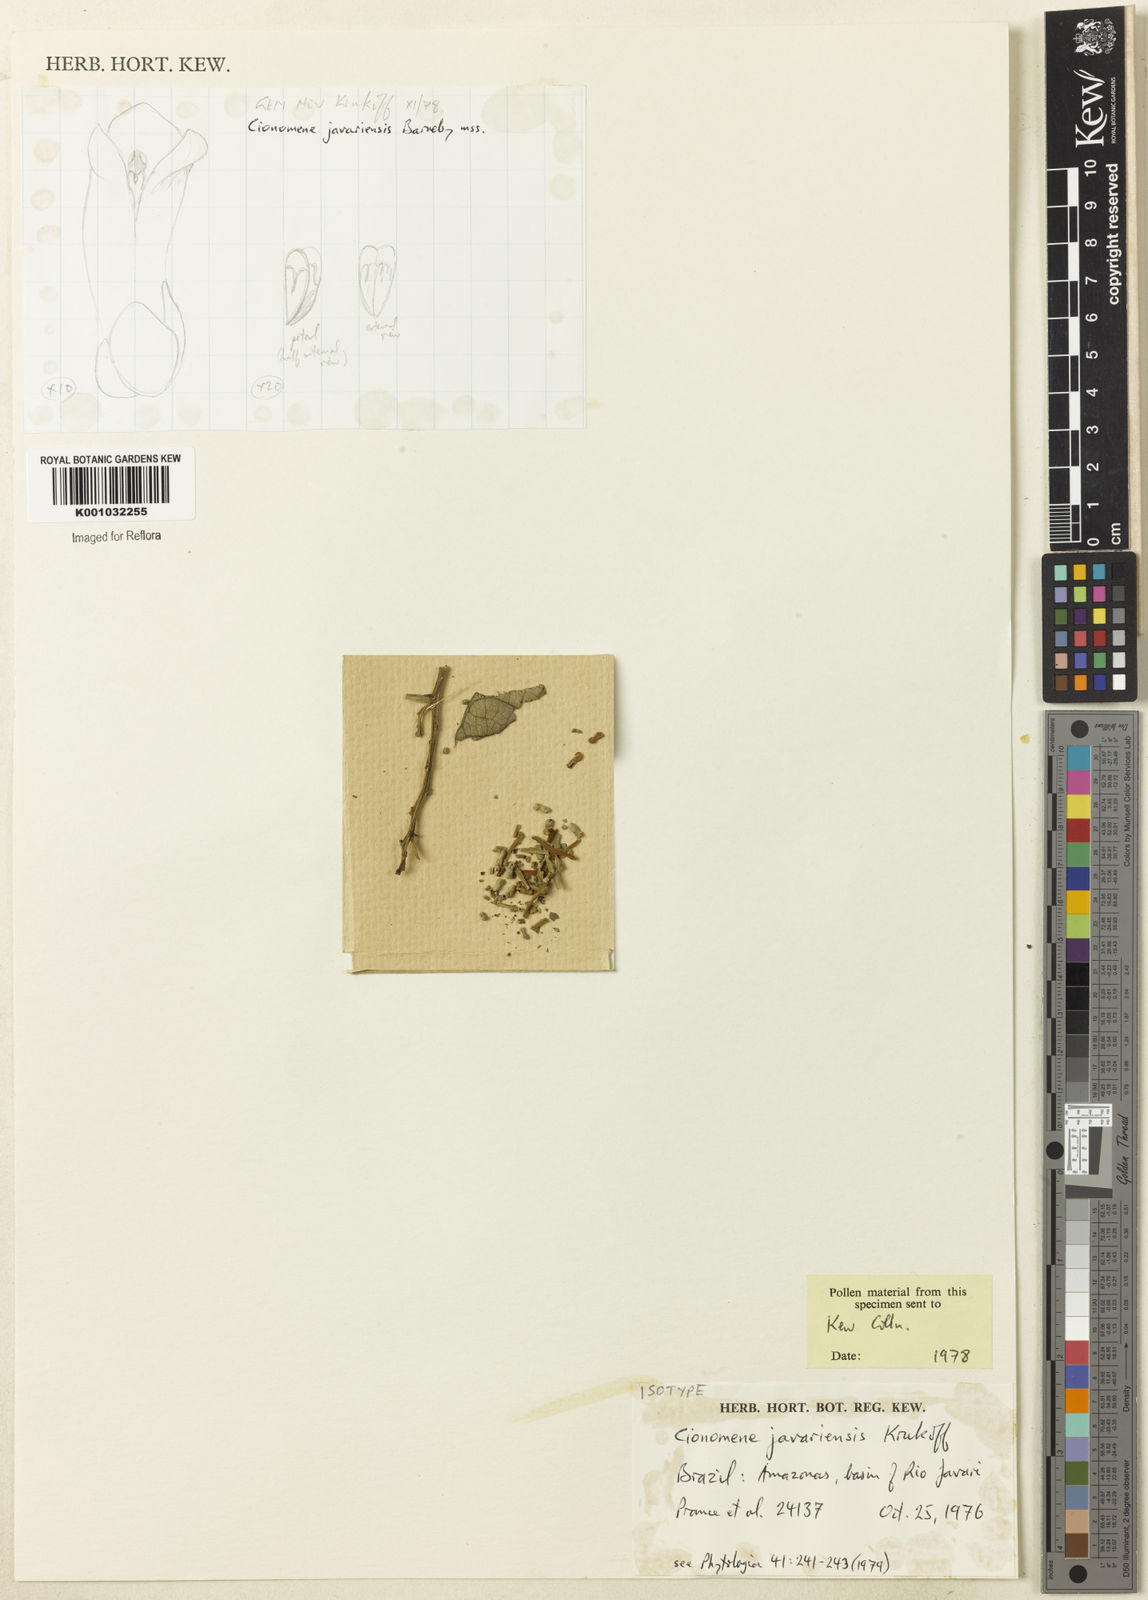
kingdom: Plantae
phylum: Tracheophyta
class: Magnoliopsida
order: Ranunculales
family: Menispermaceae
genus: Elephantomene
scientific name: Elephantomene eburnea
